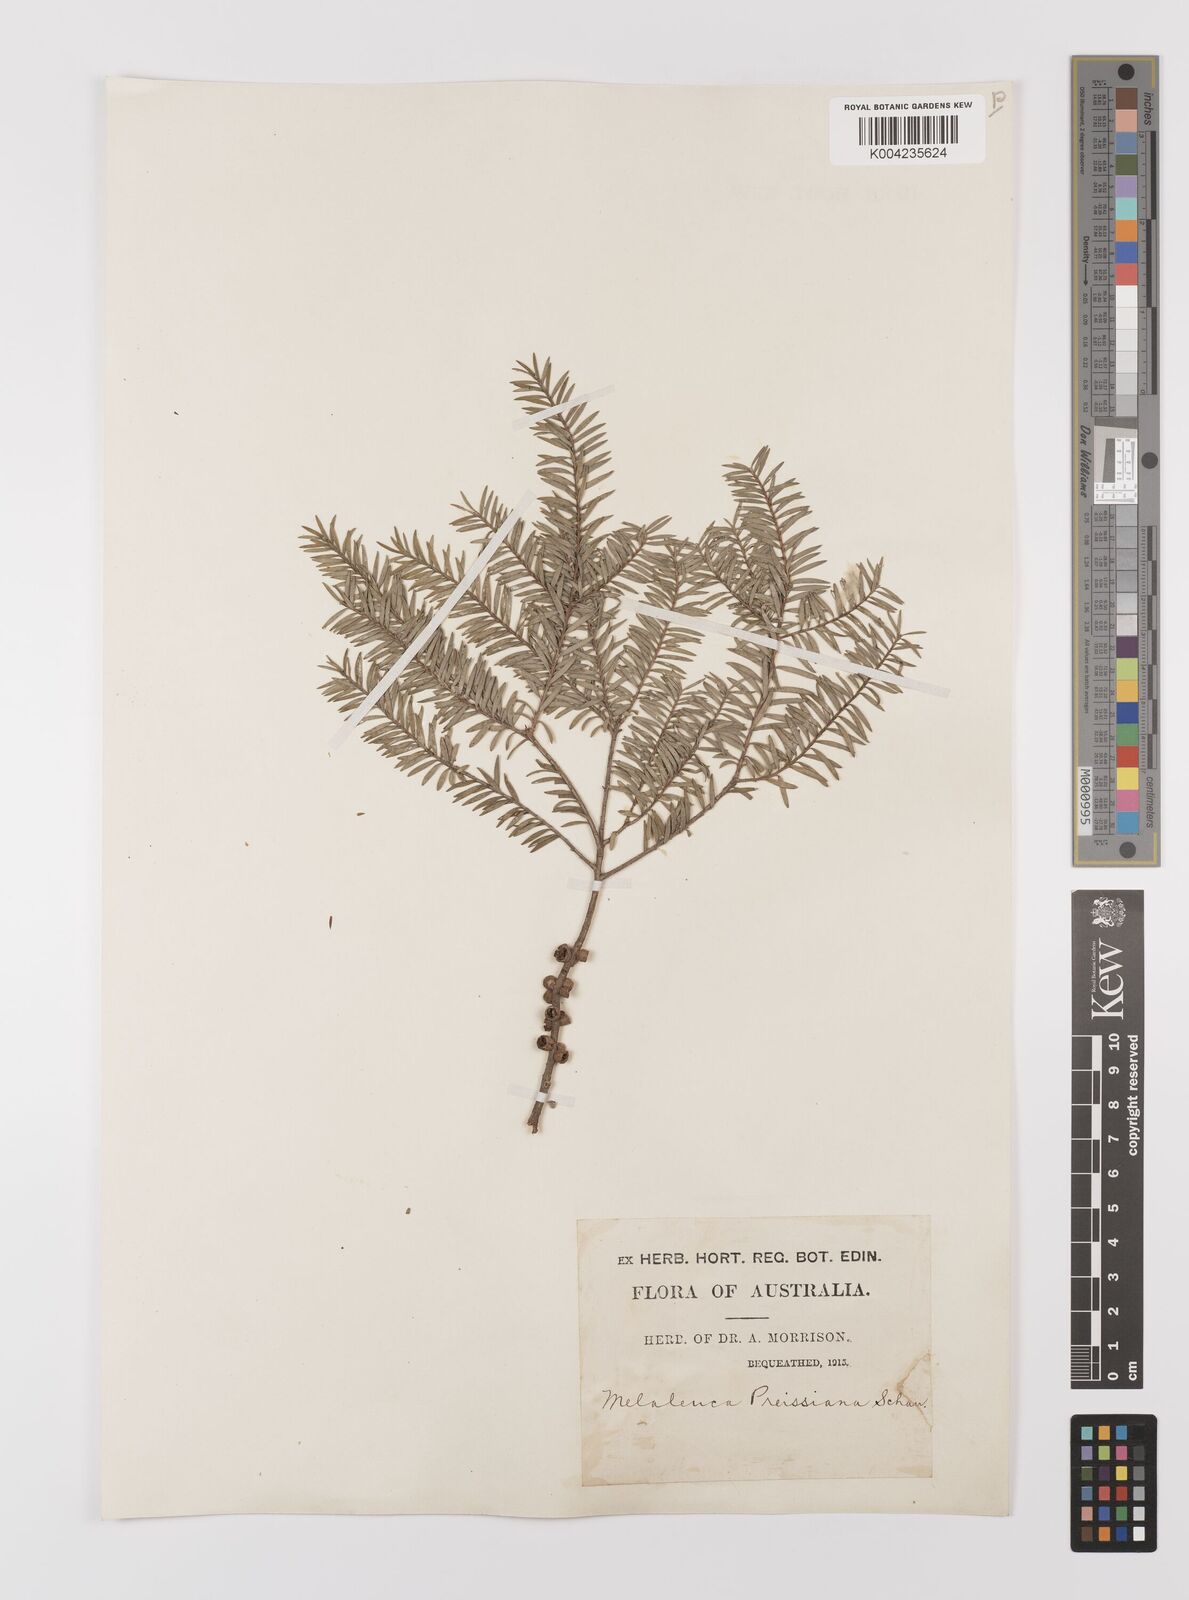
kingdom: Plantae
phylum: Tracheophyta
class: Magnoliopsida
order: Myrtales
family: Myrtaceae
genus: Melaleuca
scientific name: Melaleuca preissiana
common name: Preiss's paperbark
